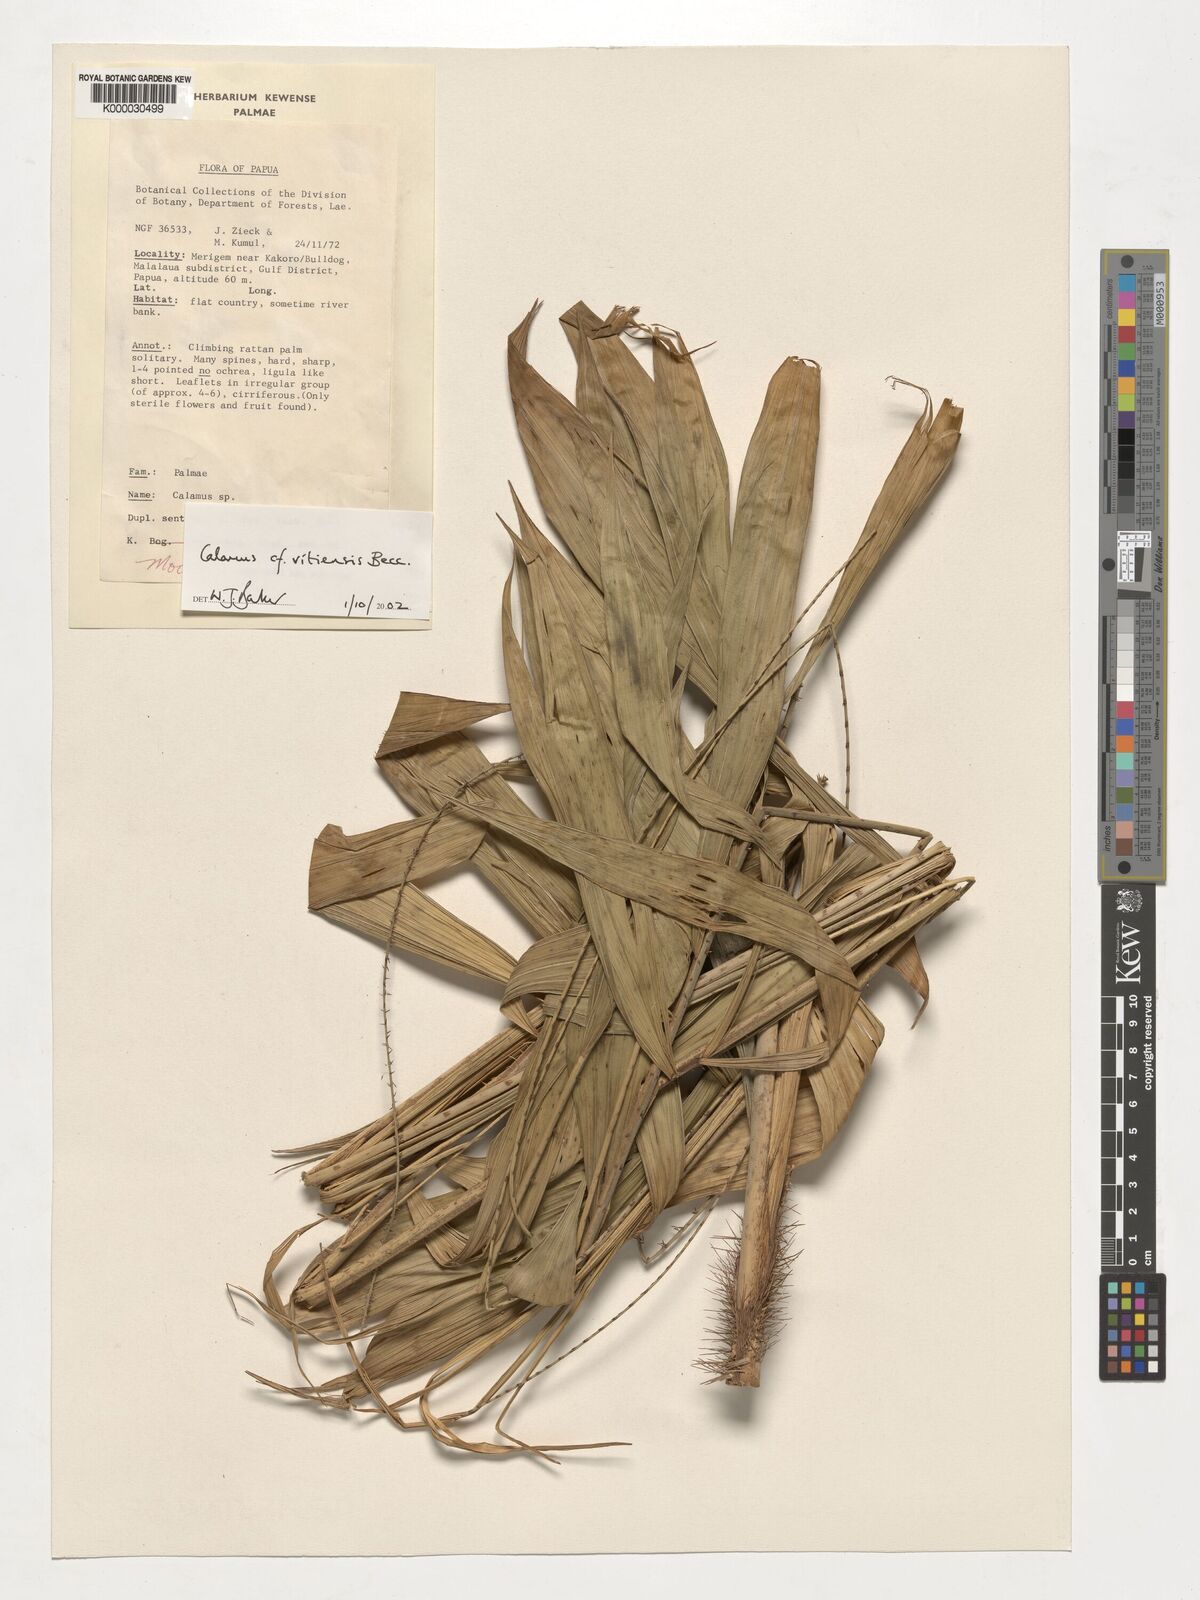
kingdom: Plantae
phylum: Tracheophyta
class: Liliopsida
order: Arecales
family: Arecaceae
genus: Calamus
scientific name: Calamus
